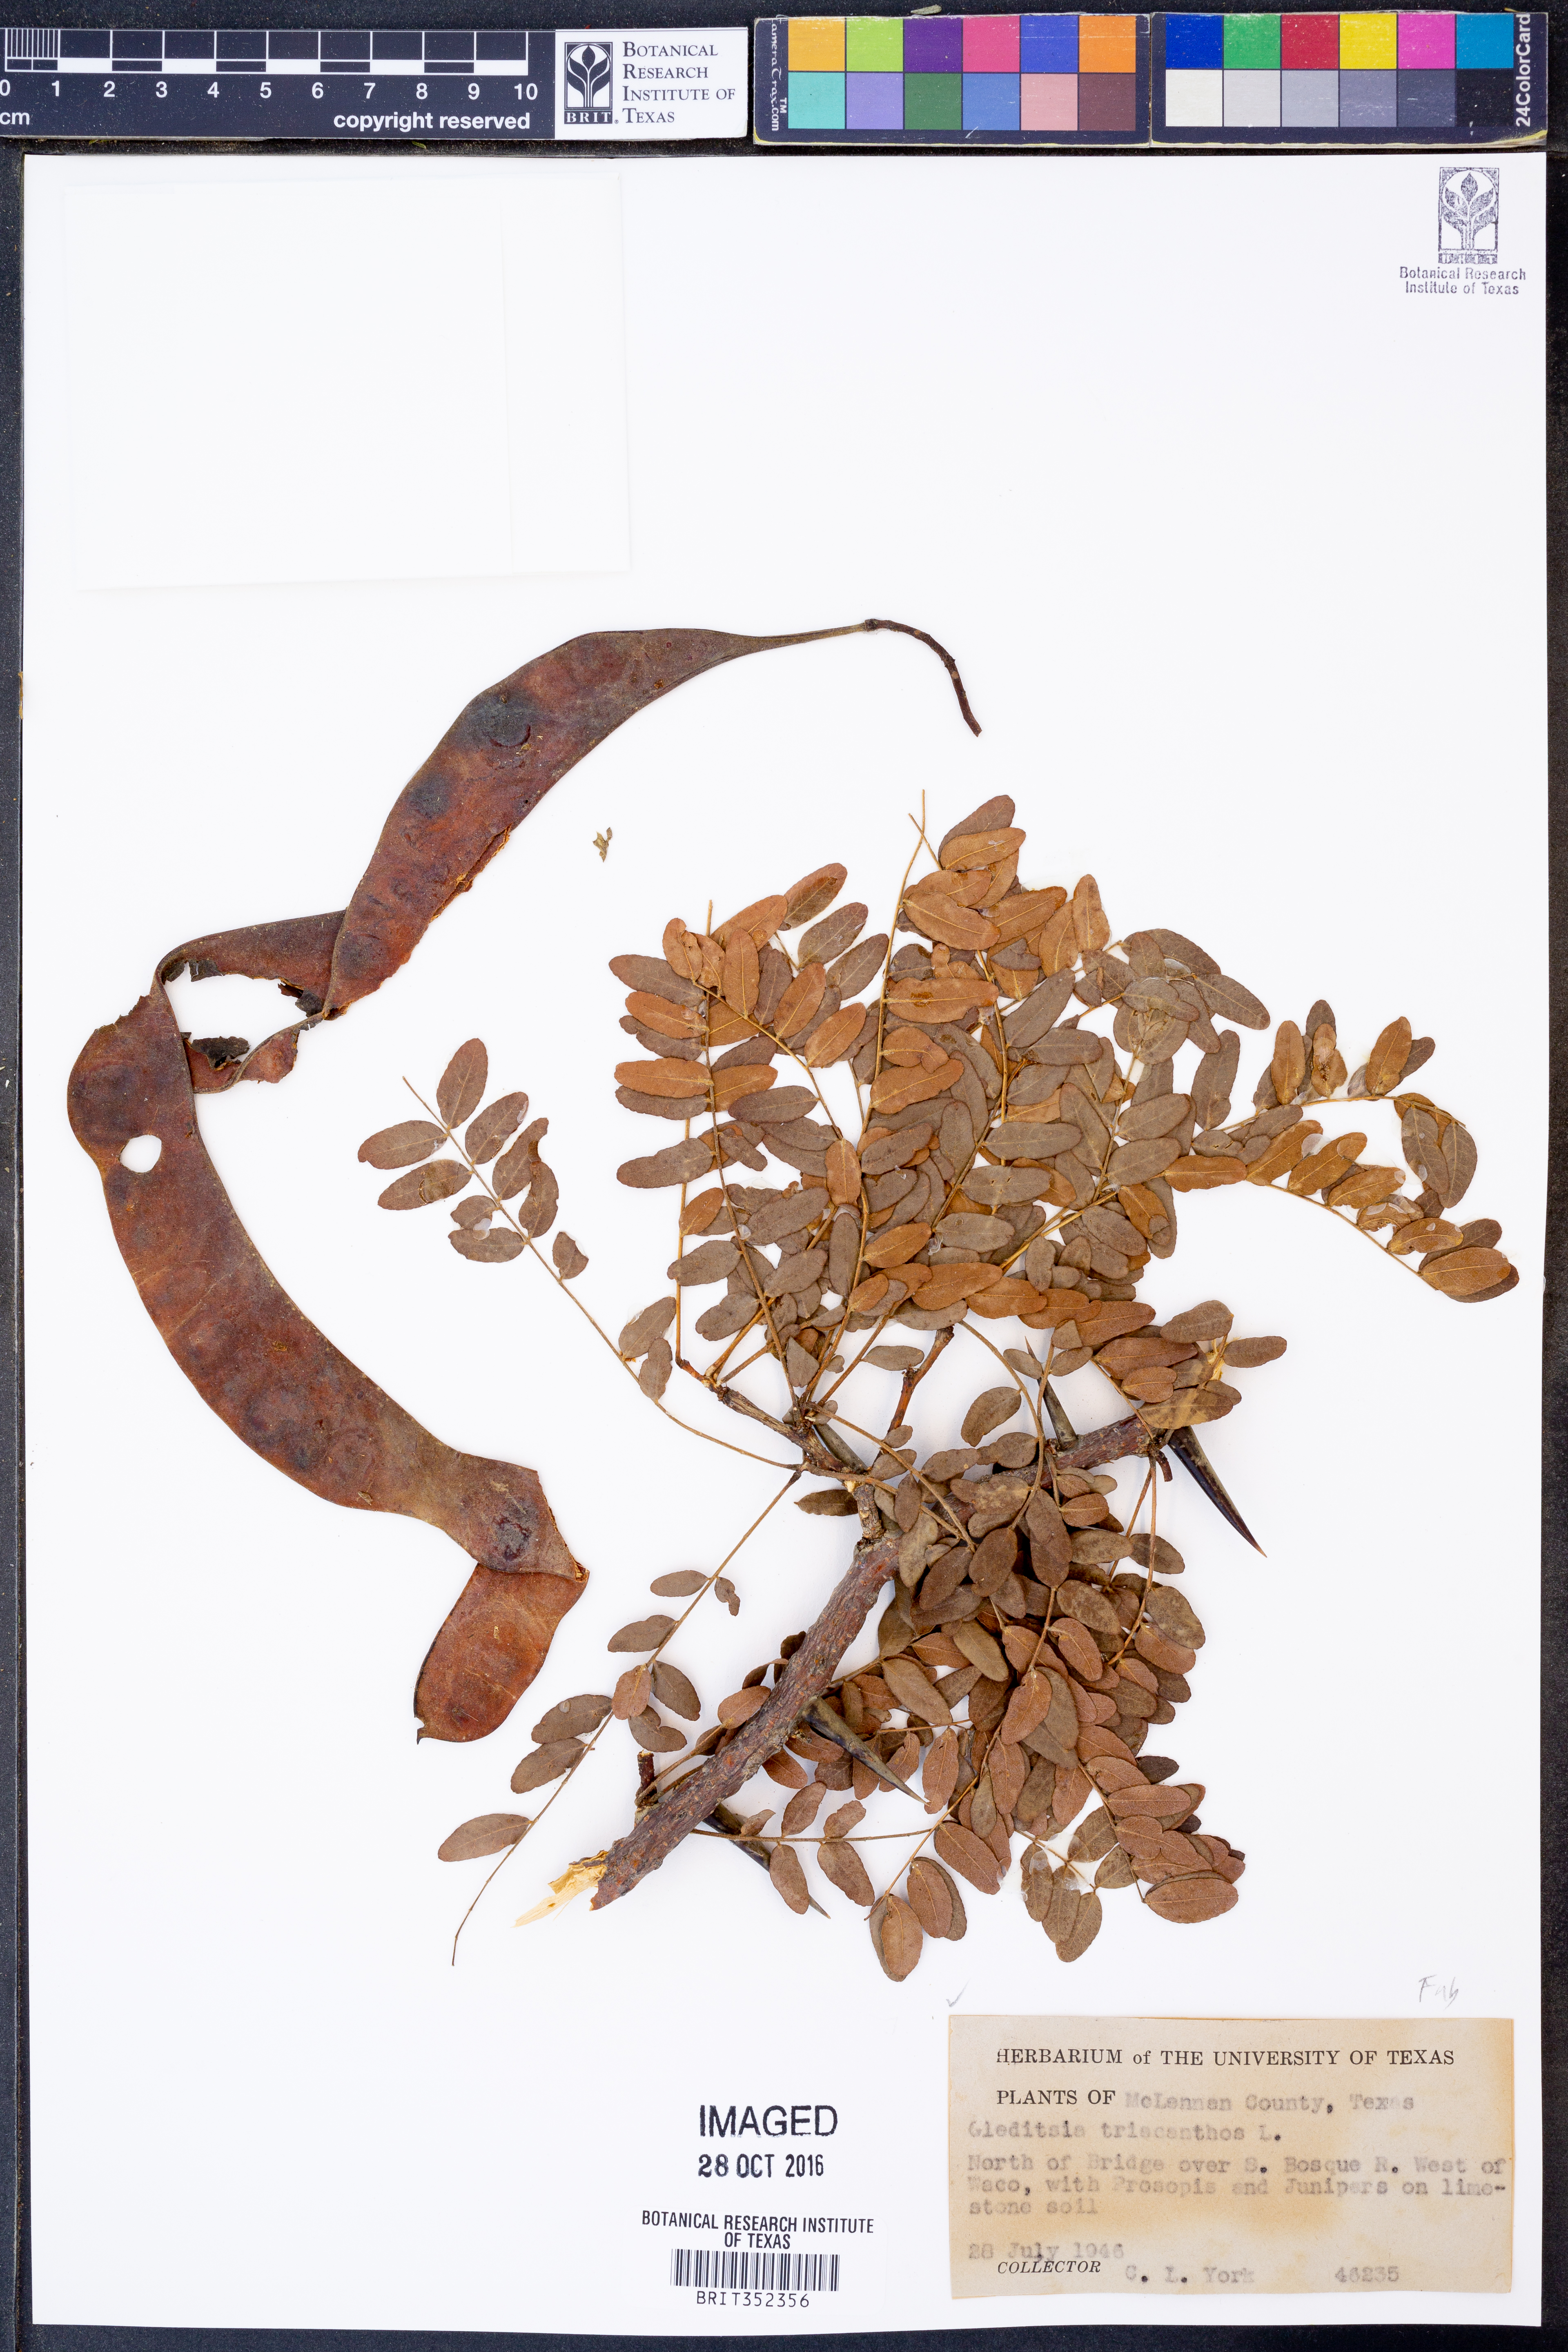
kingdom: Plantae
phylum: Tracheophyta
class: Magnoliopsida
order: Fabales
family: Fabaceae
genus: Gleditsia
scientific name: Gleditsia triacanthos
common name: Common honeylocust
